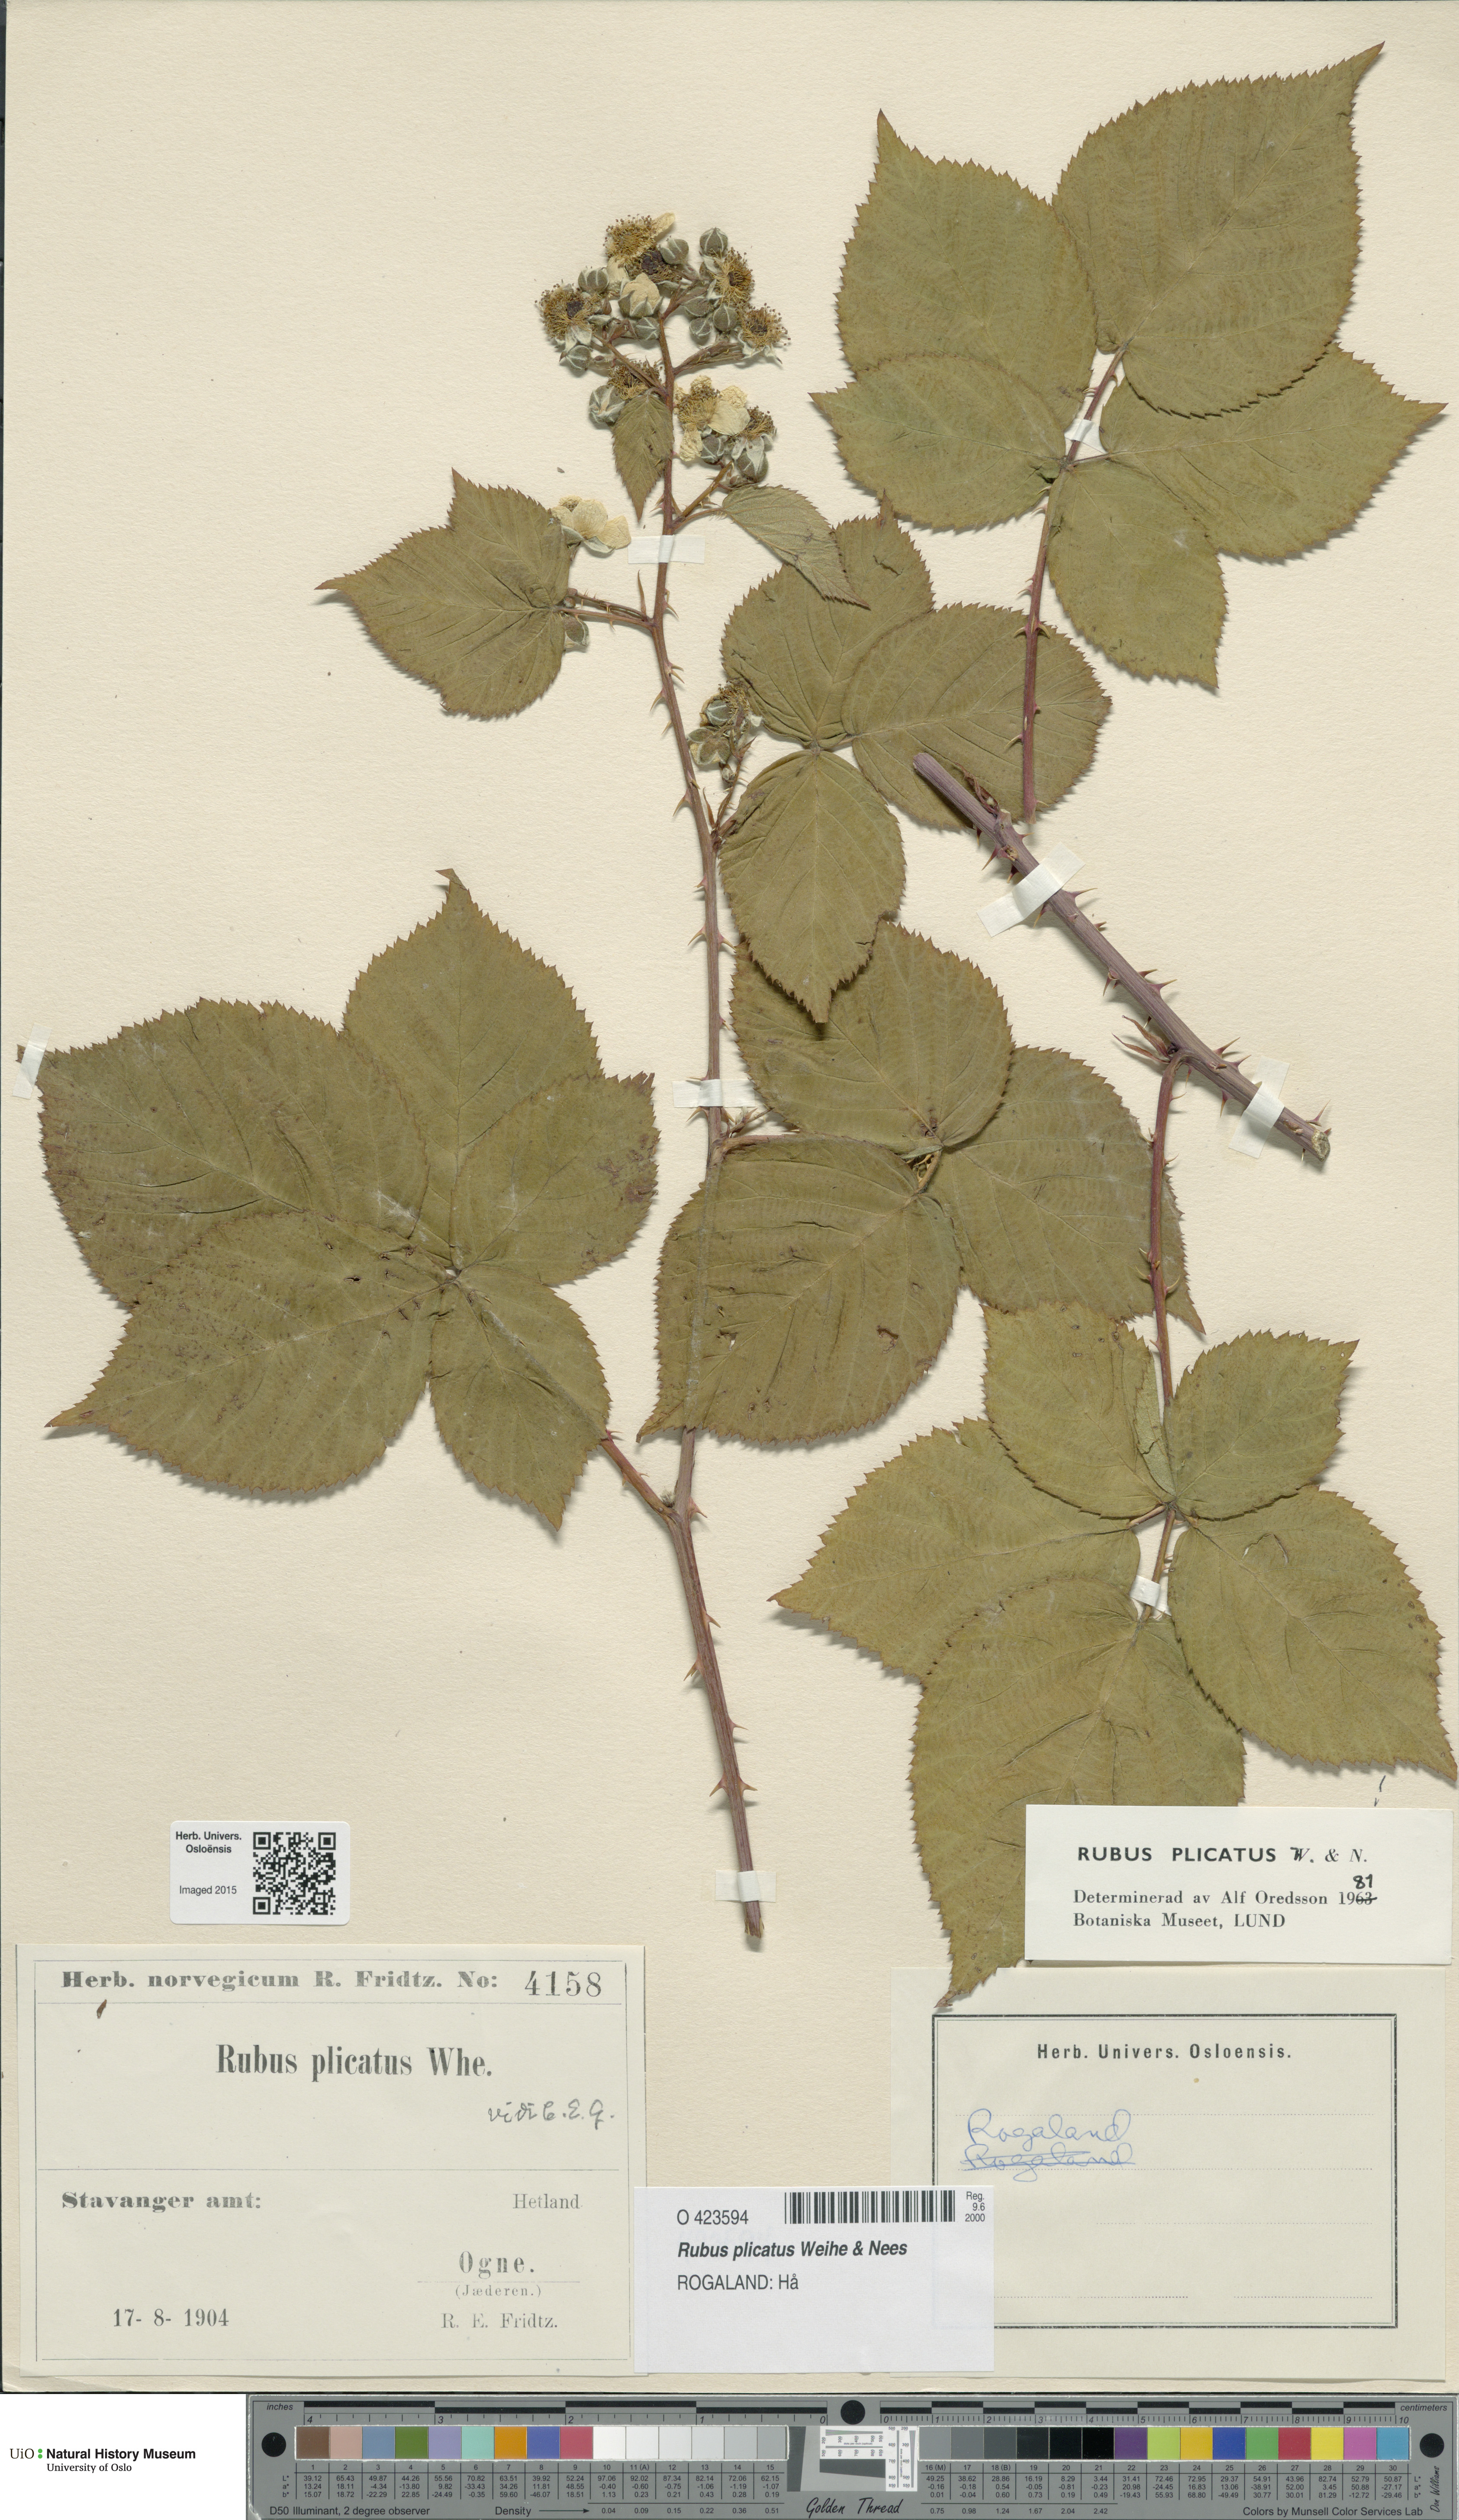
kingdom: Plantae
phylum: Tracheophyta
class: Magnoliopsida
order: Rosales
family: Rosaceae
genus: Rubus
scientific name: Rubus fruticosus
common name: Blackberry, bramble
